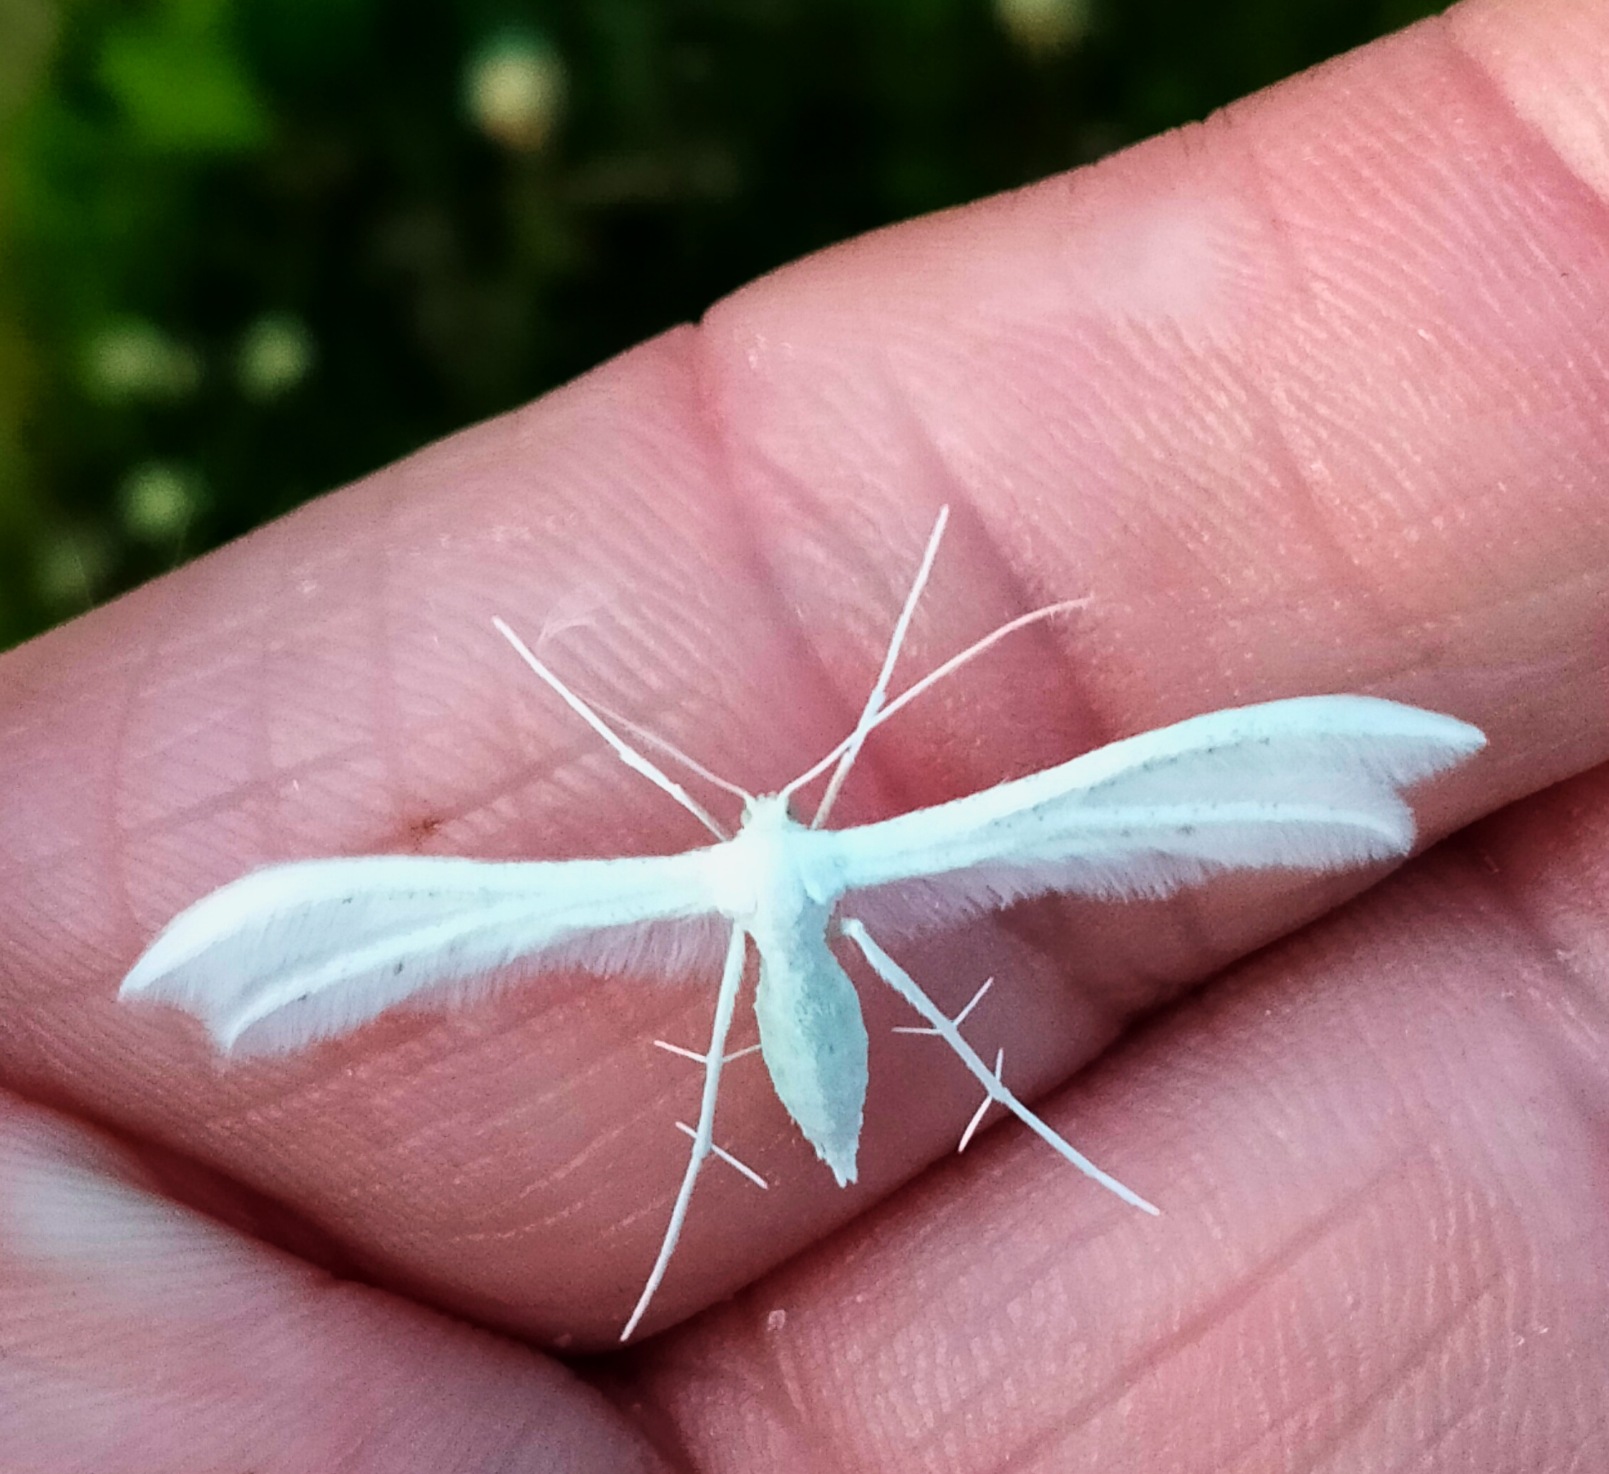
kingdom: Animalia
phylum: Arthropoda
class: Insecta
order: Lepidoptera
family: Pterophoridae
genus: Pterophorus
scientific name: Pterophorus pentadactyla
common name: Hvidt fjermøl
